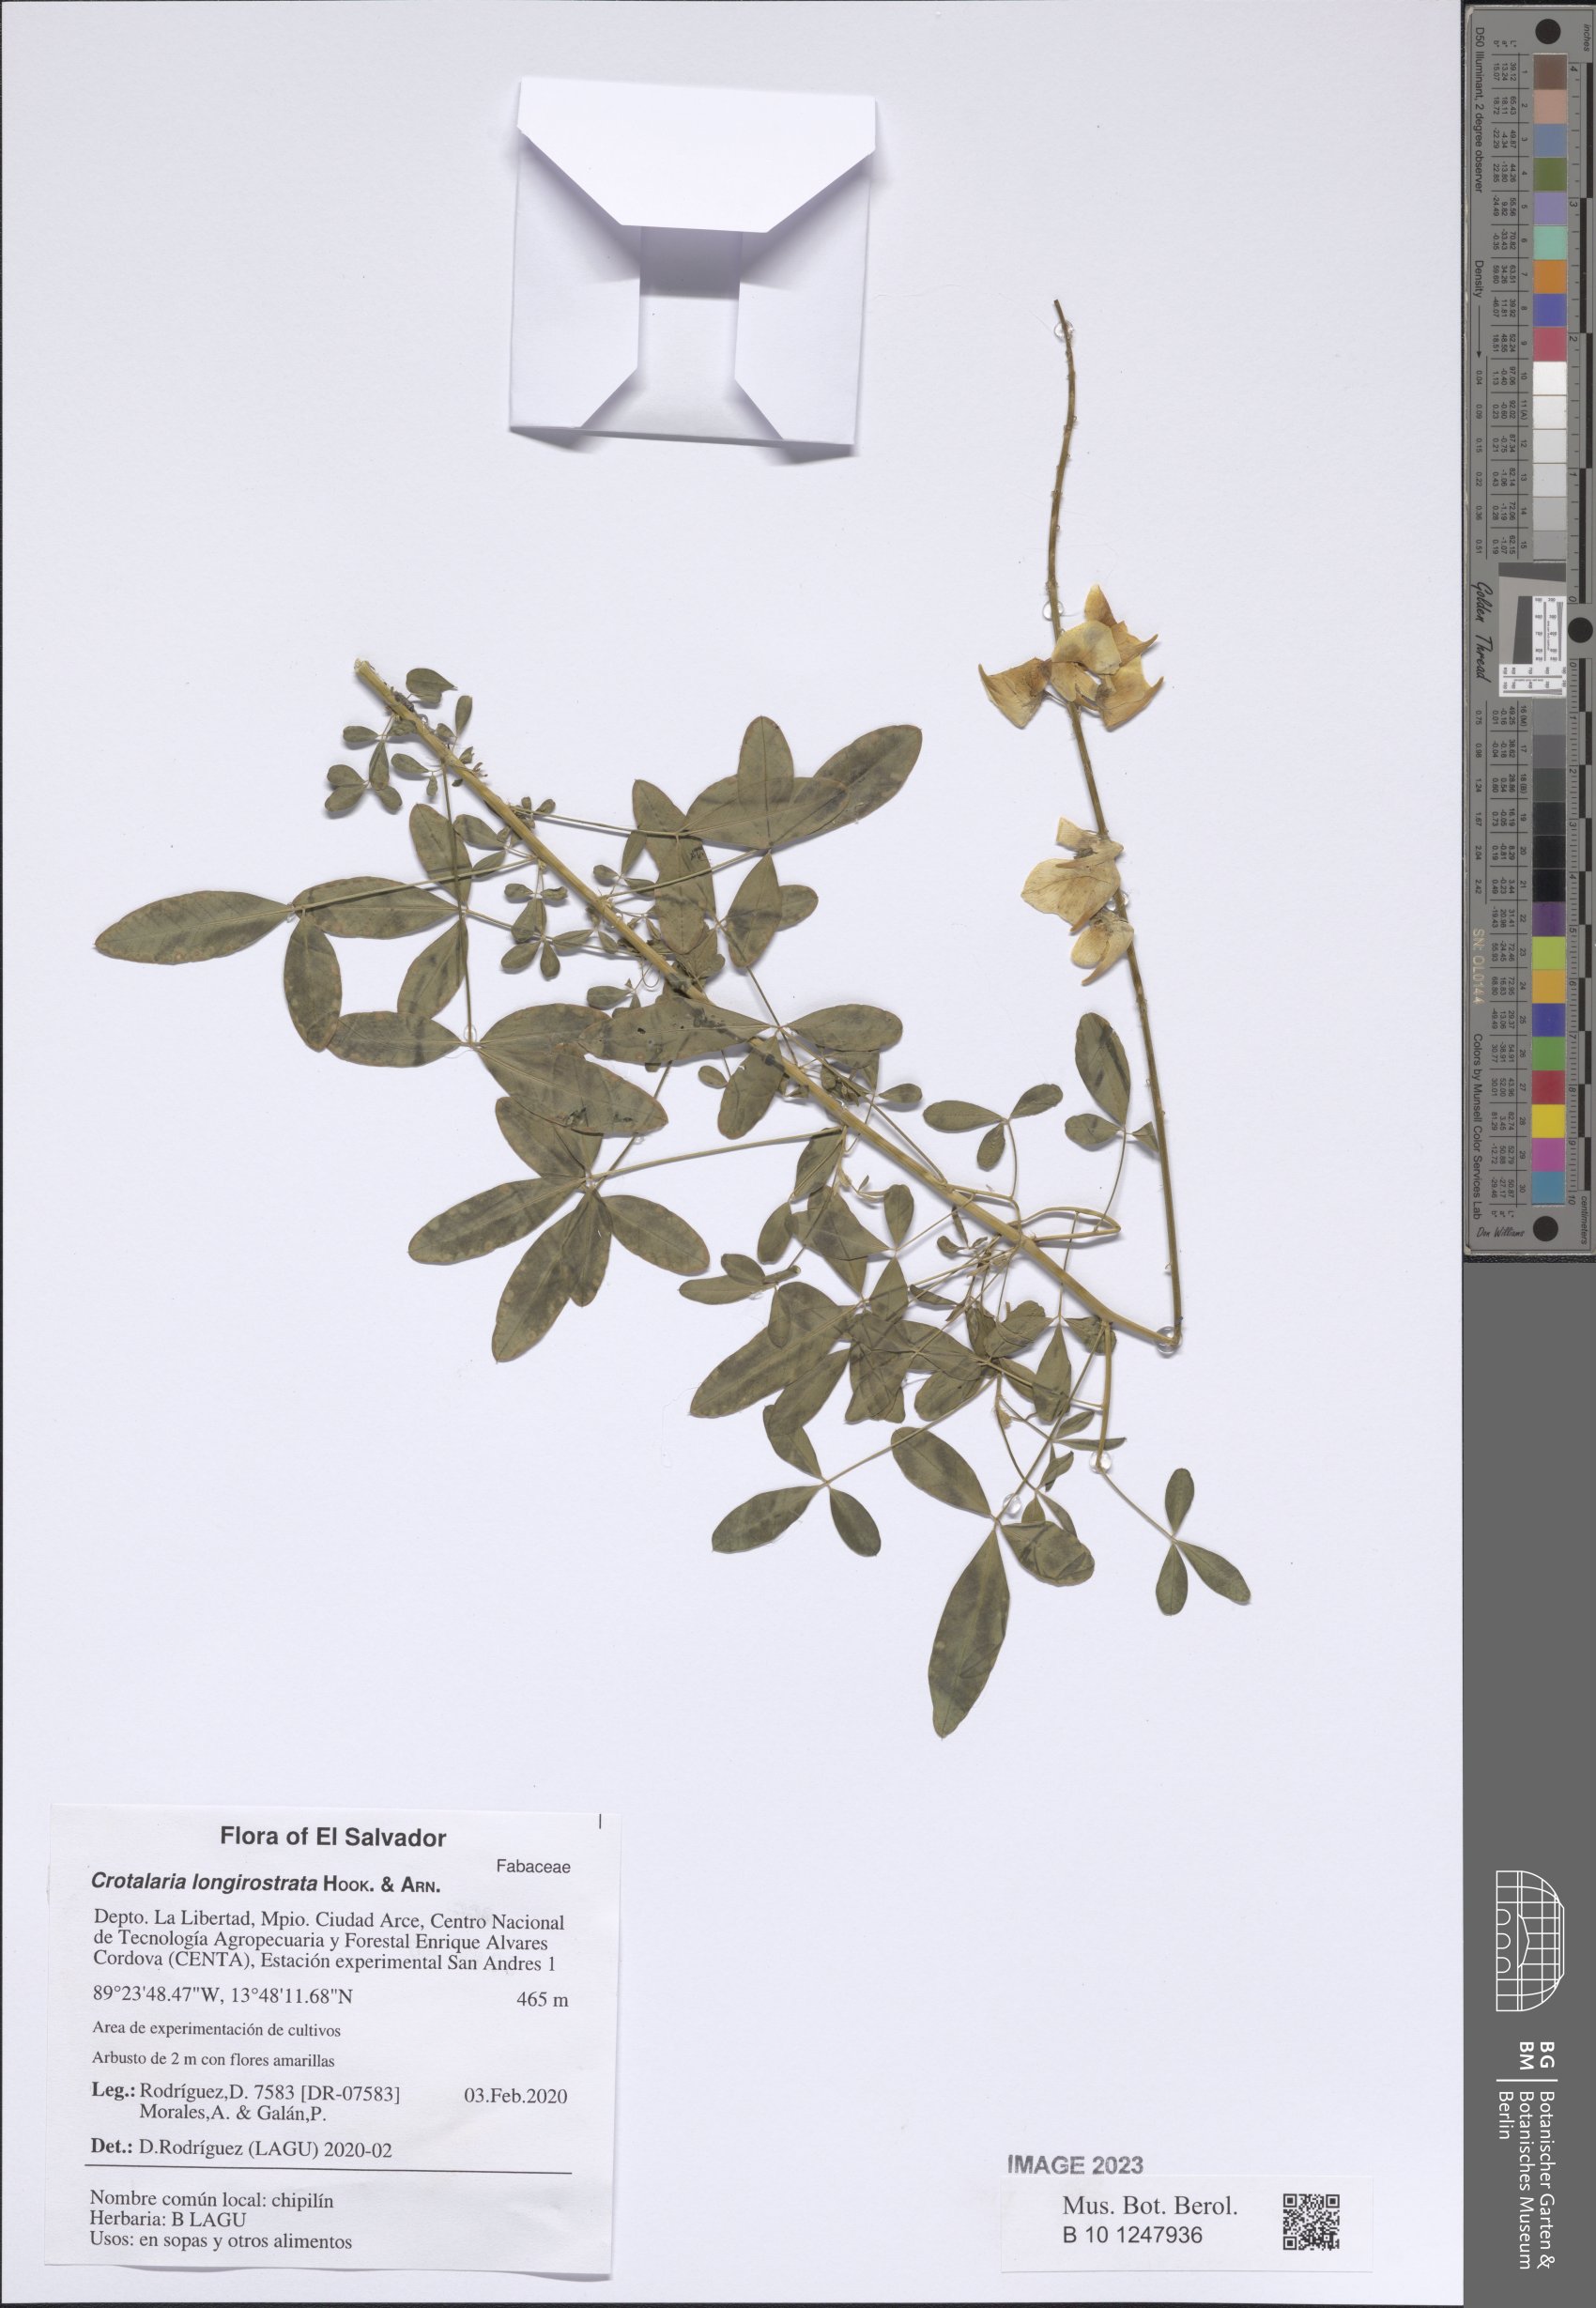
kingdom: Plantae
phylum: Tracheophyta
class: Magnoliopsida
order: Fabales
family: Fabaceae
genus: Crotalaria
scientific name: Crotalaria longirostrata
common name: Longbeak rattlebox
